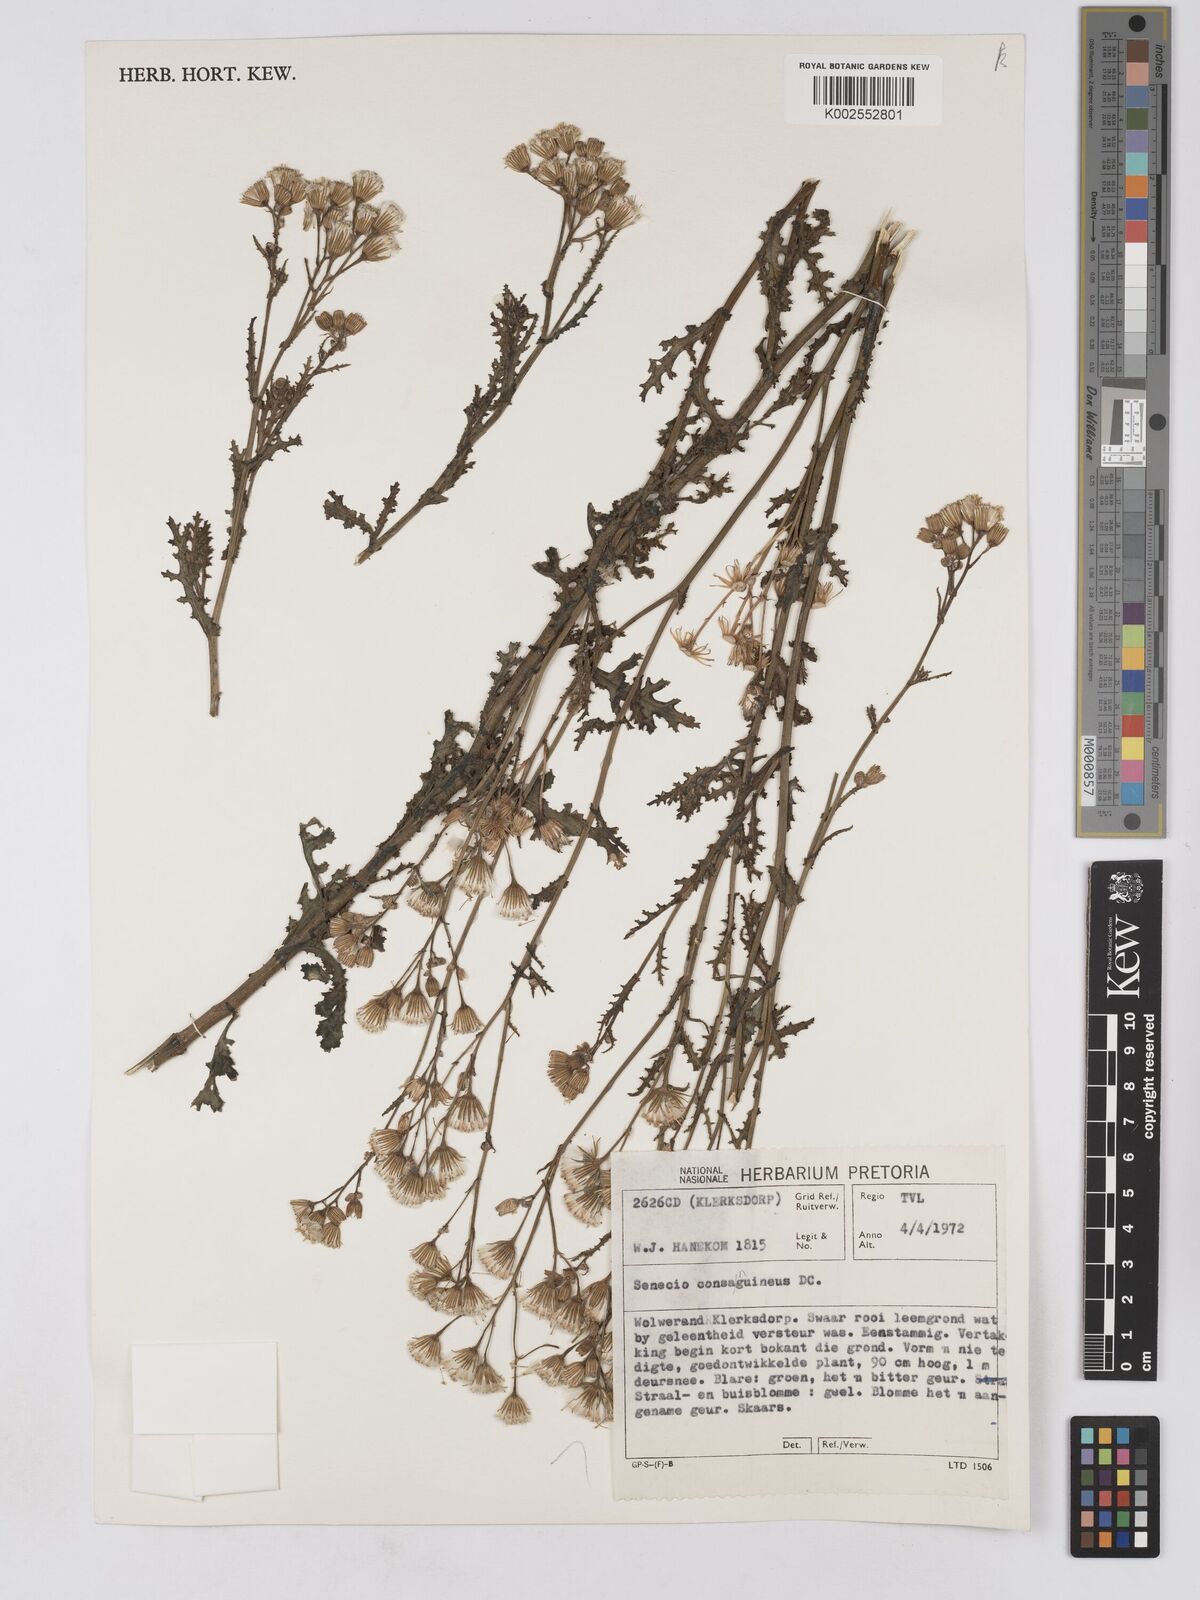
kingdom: Plantae
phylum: Tracheophyta
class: Magnoliopsida
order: Asterales
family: Asteraceae
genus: Senecio
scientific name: Senecio consanguineus
